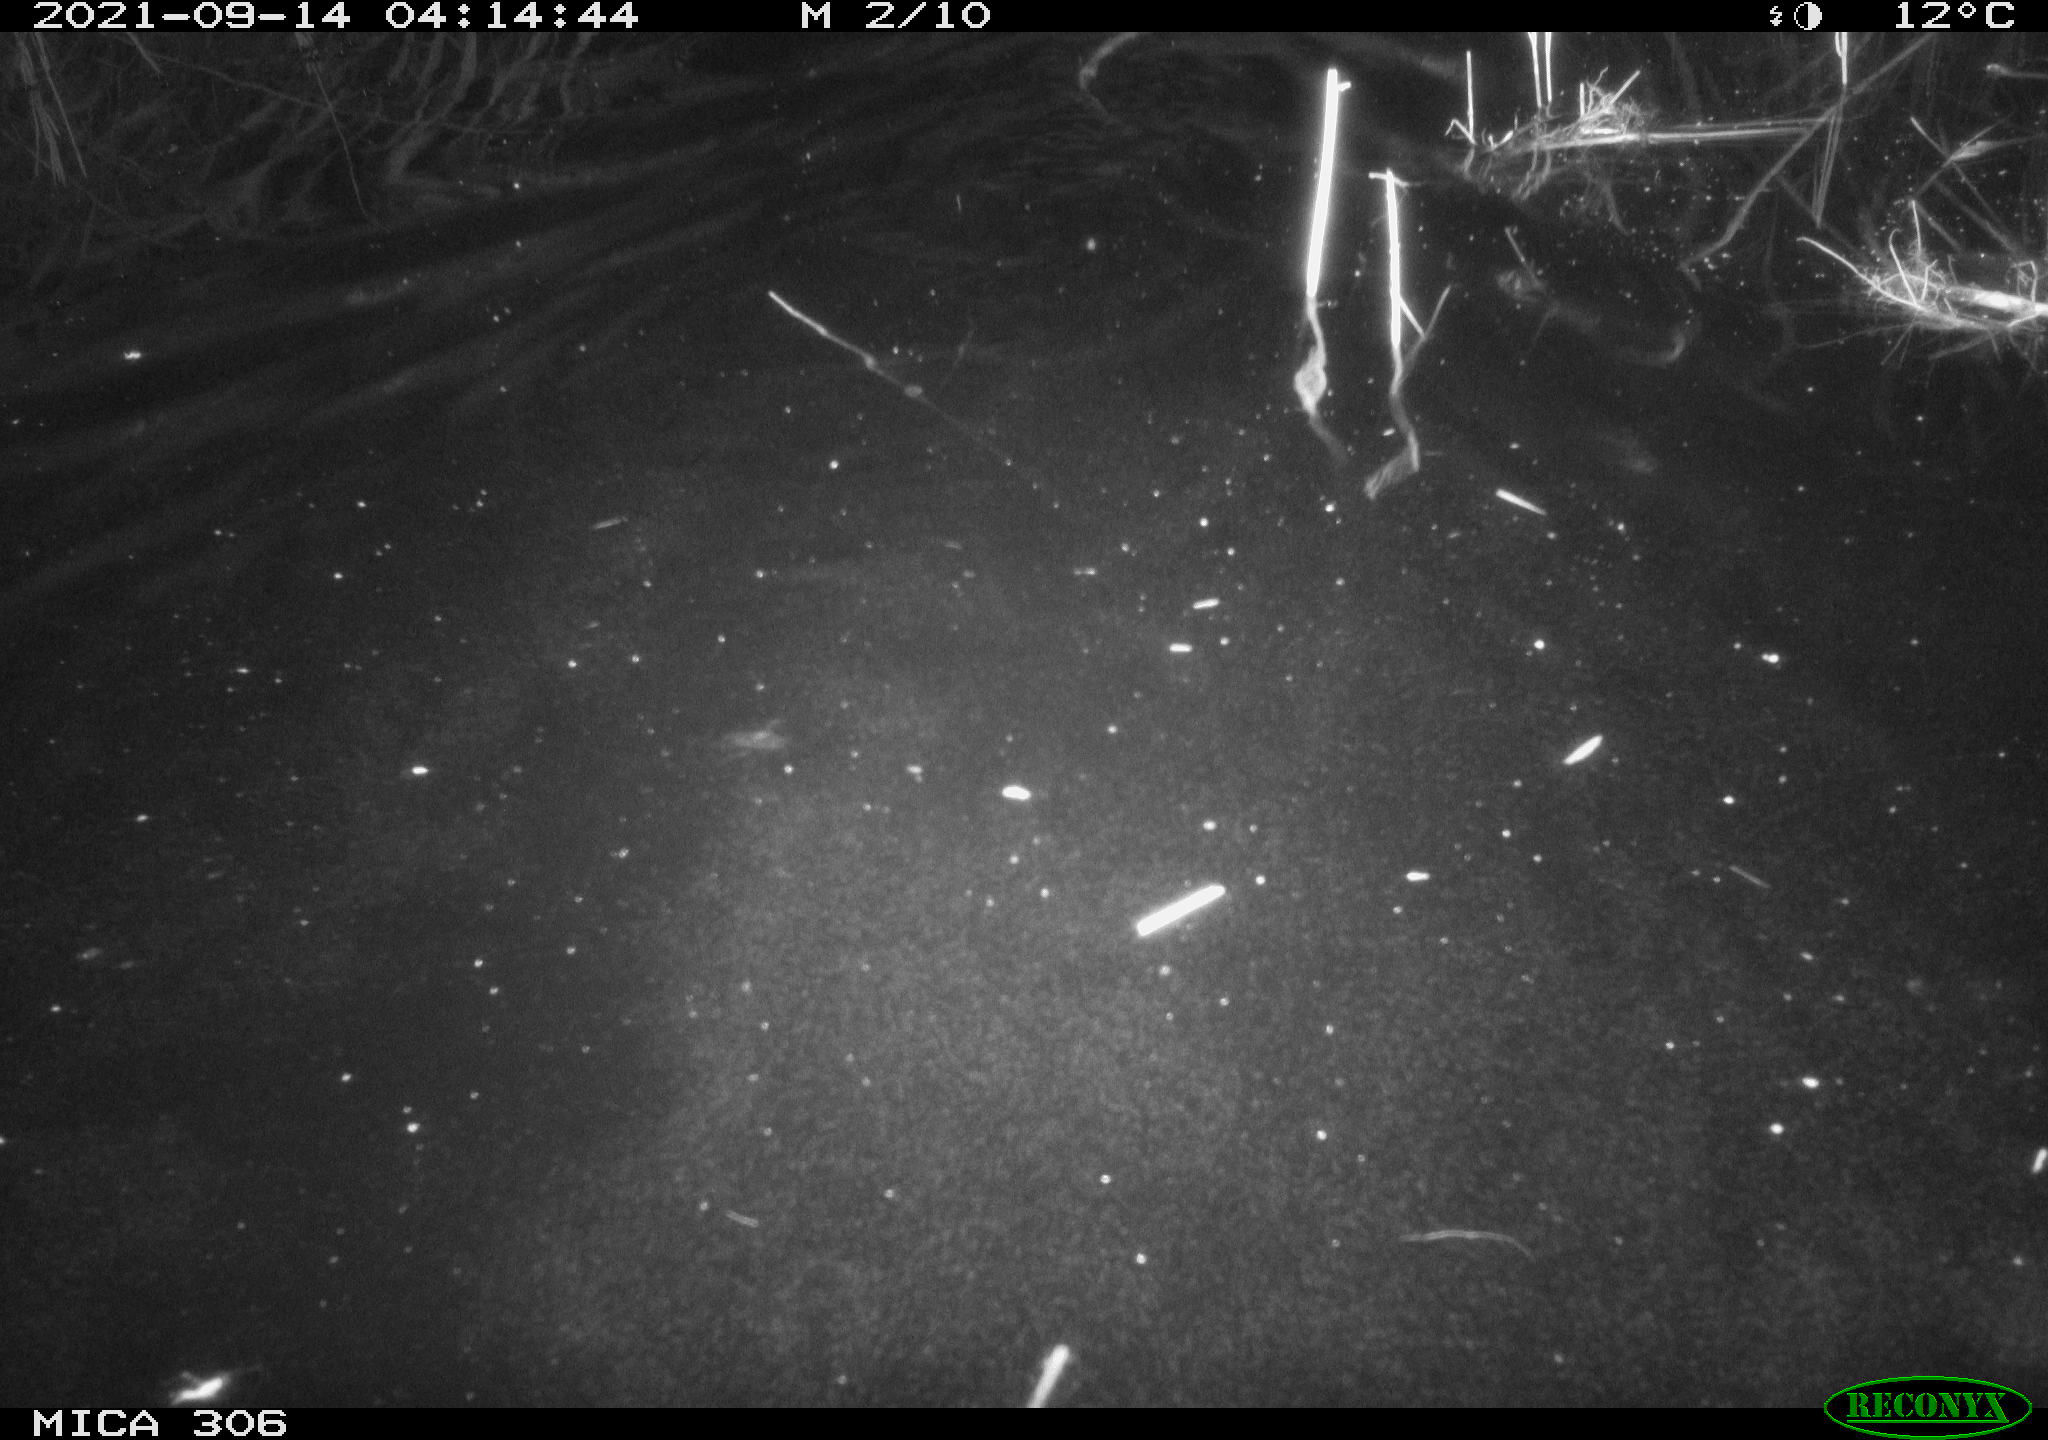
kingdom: Animalia
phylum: Chordata
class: Mammalia
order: Rodentia
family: Cricetidae
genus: Ondatra
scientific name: Ondatra zibethicus
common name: Muskrat
